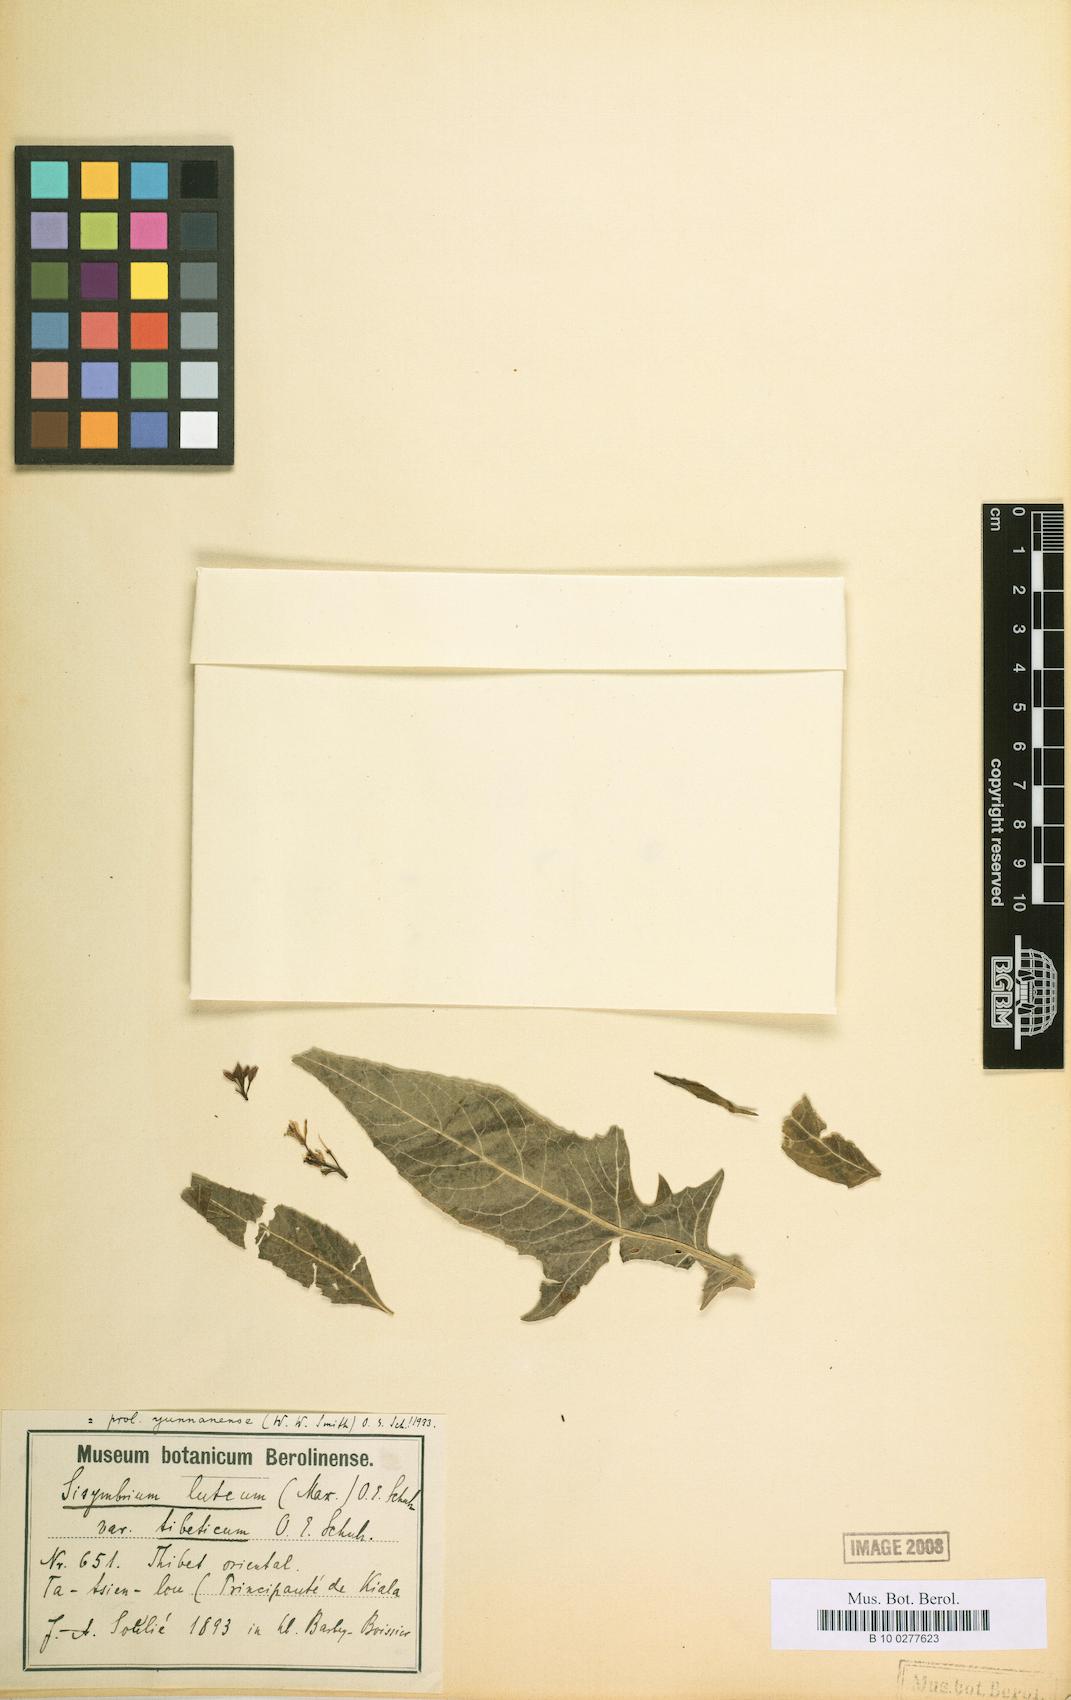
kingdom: Plantae
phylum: Tracheophyta
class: Magnoliopsida
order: Brassicales
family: Brassicaceae
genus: Sisymbrium
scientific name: Sisymbrium luteum
